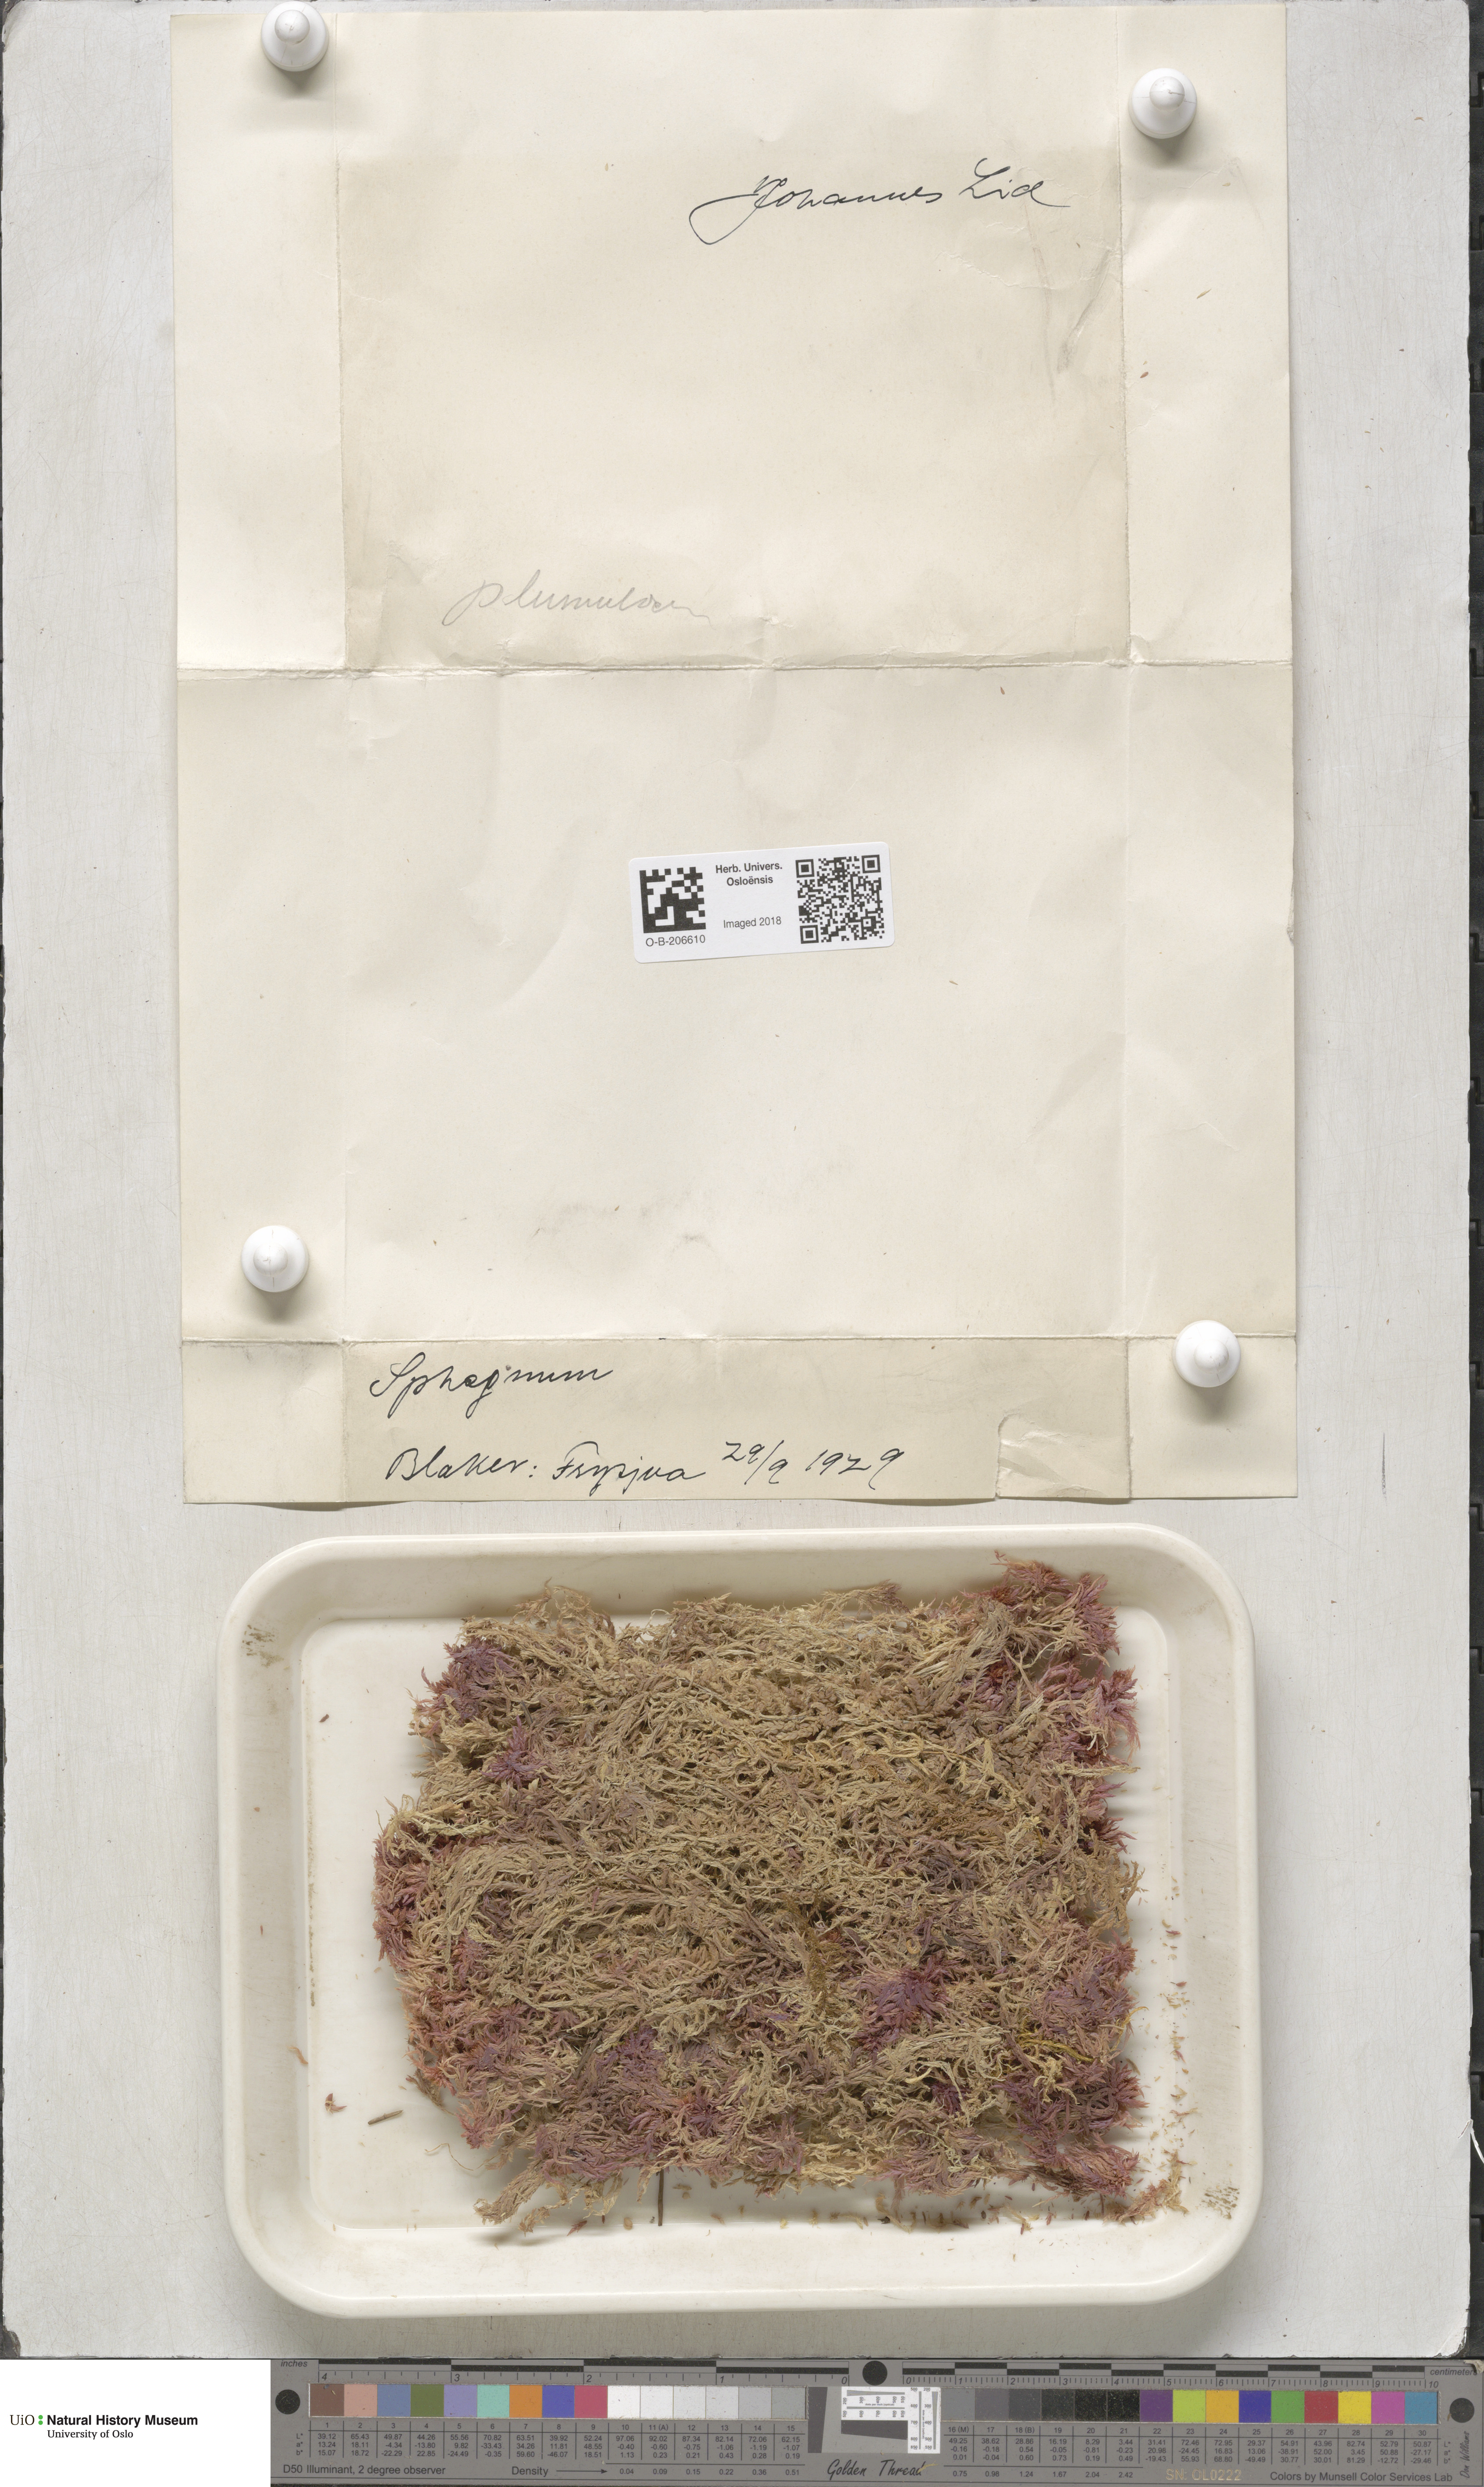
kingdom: Plantae
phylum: Bryophyta
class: Sphagnopsida
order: Sphagnales
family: Sphagnaceae
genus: Sphagnum
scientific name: Sphagnum subnitens
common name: Lustrous bog-moss
